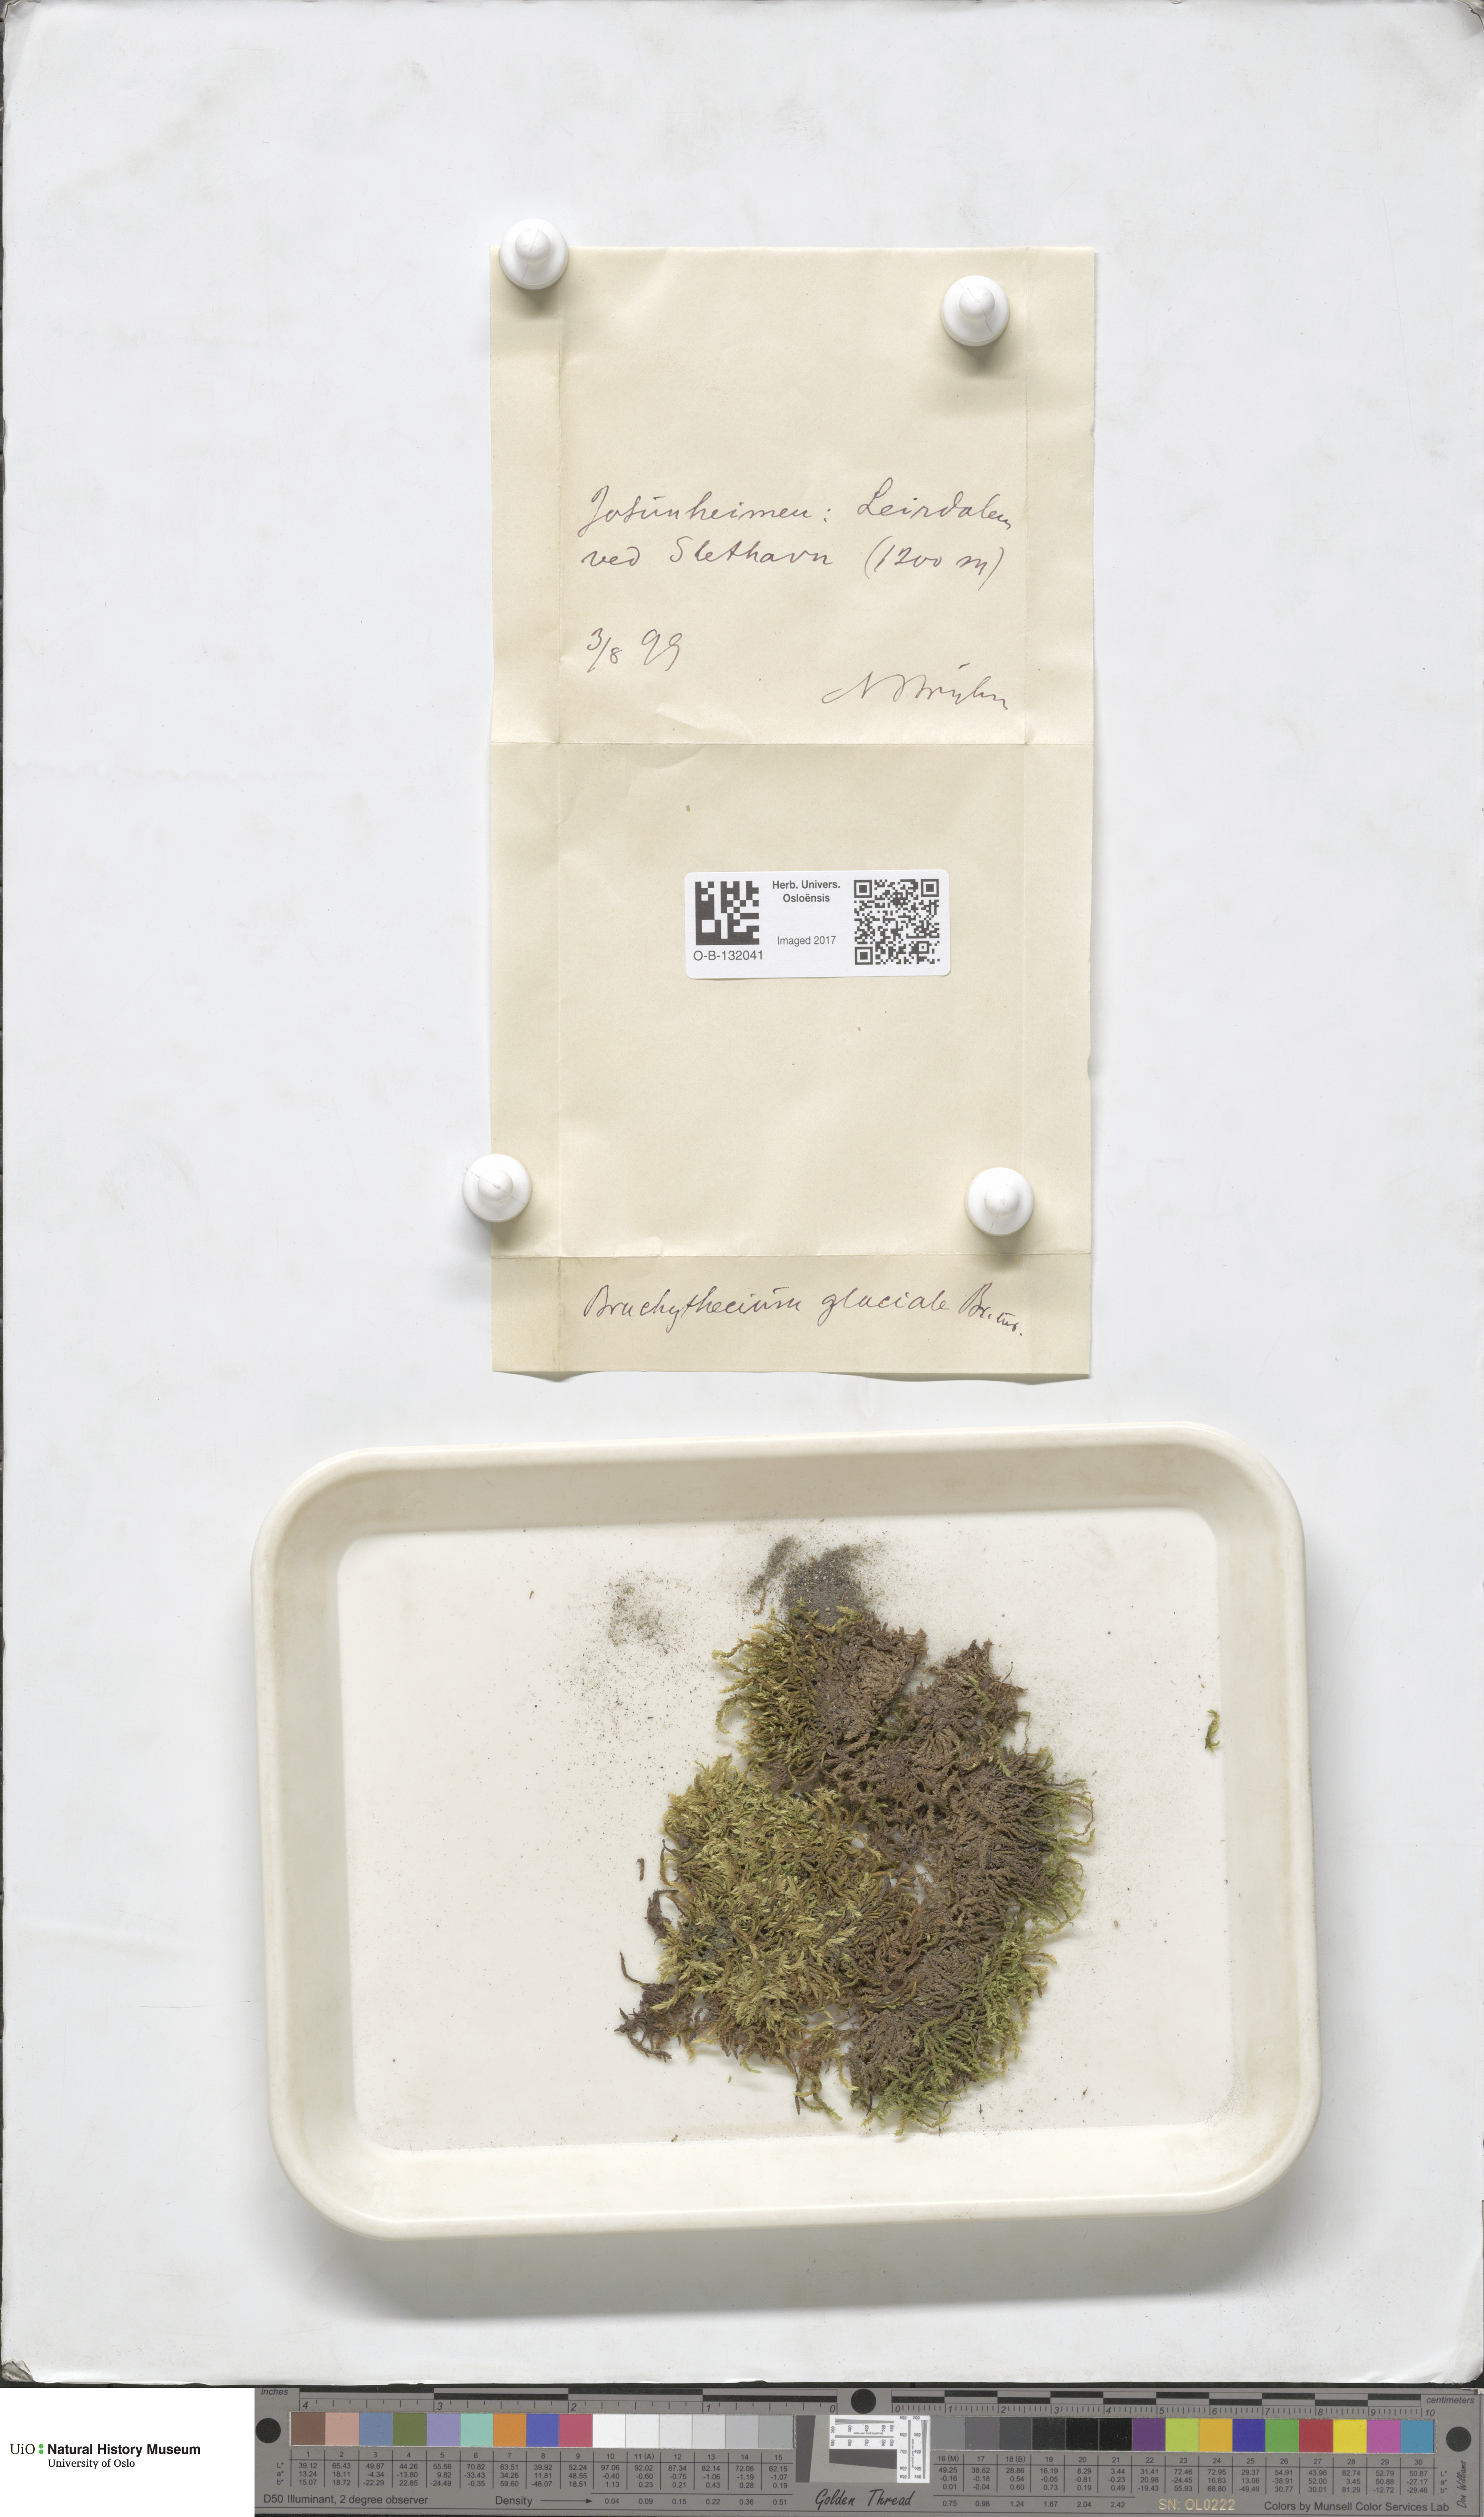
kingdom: Plantae
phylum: Bryophyta
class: Bryopsida
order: Hypnales
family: Brachytheciaceae
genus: Sciuro-hypnum
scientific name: Sciuro-hypnum glaciale
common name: Snow feather-moss
